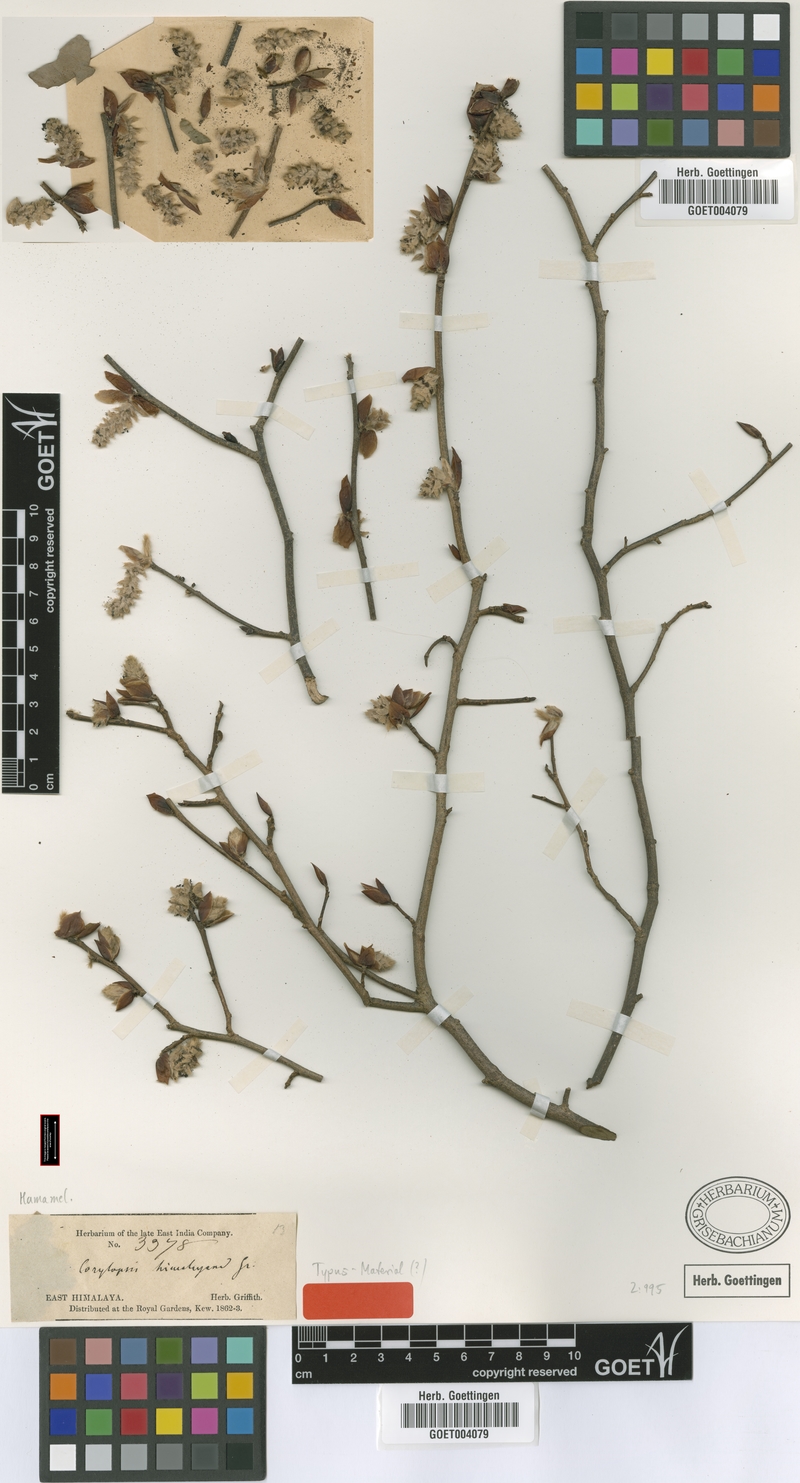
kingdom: Plantae
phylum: Tracheophyta
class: Magnoliopsida
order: Saxifragales
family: Hamamelidaceae
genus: Corylopsis
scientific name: Corylopsis himalayana
